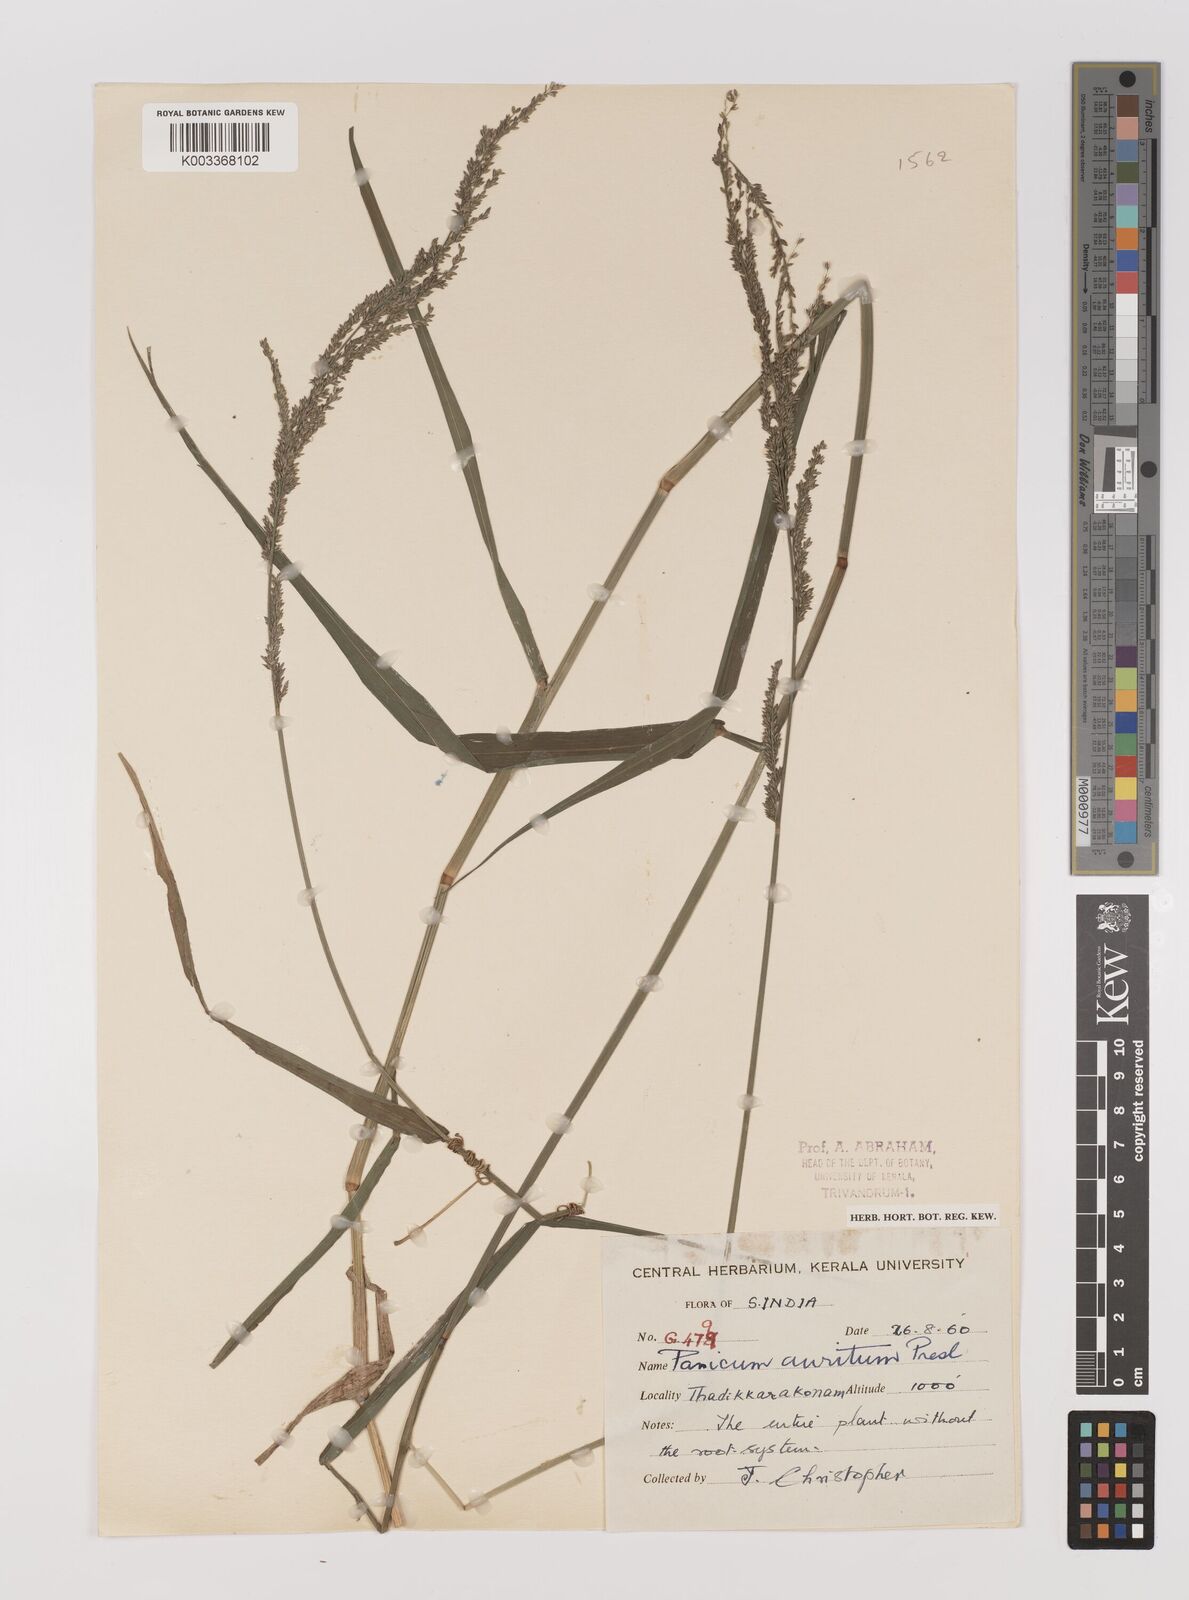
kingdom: Plantae
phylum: Tracheophyta
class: Liliopsida
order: Poales
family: Poaceae
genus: Hymenachne
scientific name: Hymenachne aurita
